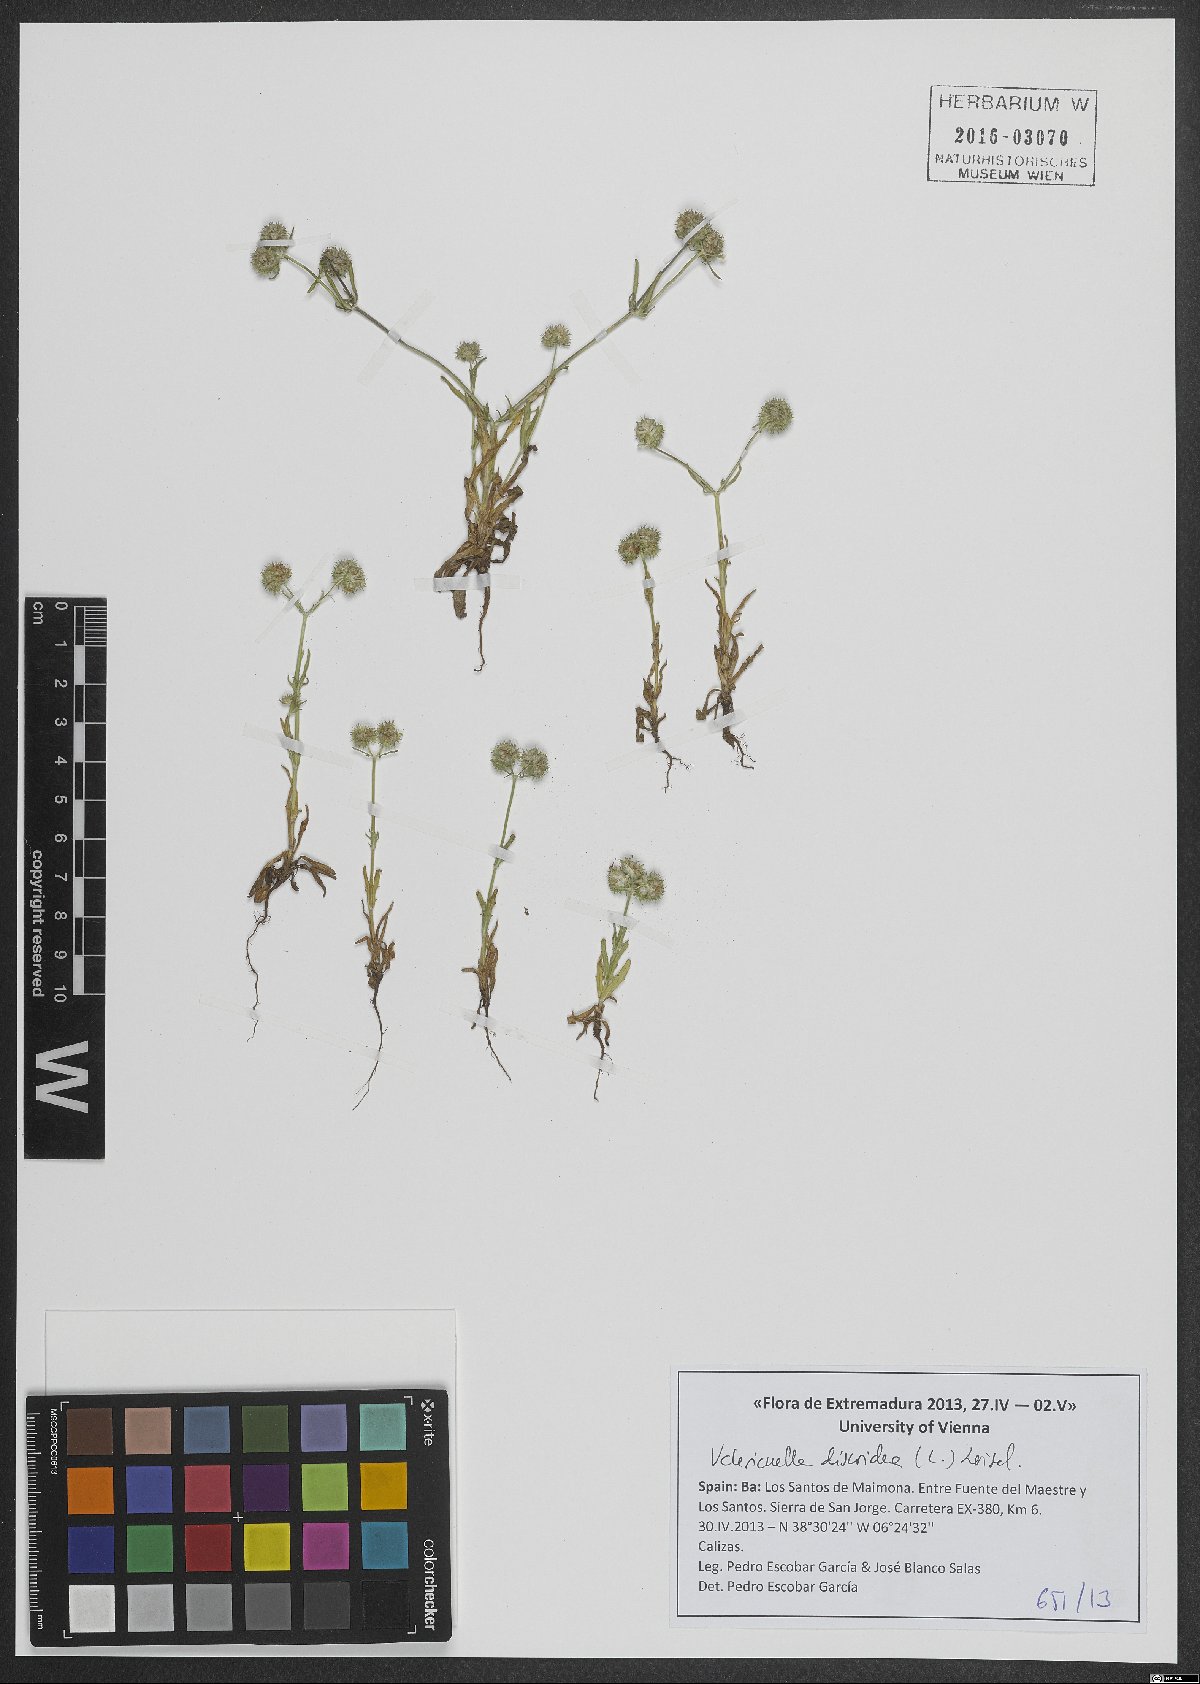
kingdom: Plantae
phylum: Tracheophyta
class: Magnoliopsida
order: Dipsacales
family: Caprifoliaceae
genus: Valerianella
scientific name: Valerianella discoidea
